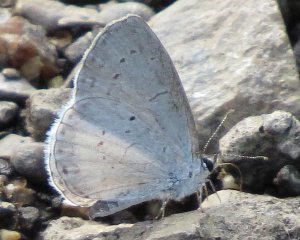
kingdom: Animalia
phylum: Arthropoda
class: Insecta
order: Lepidoptera
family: Lycaenidae
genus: Cyaniris
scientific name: Cyaniris neglecta
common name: Summer Azure
